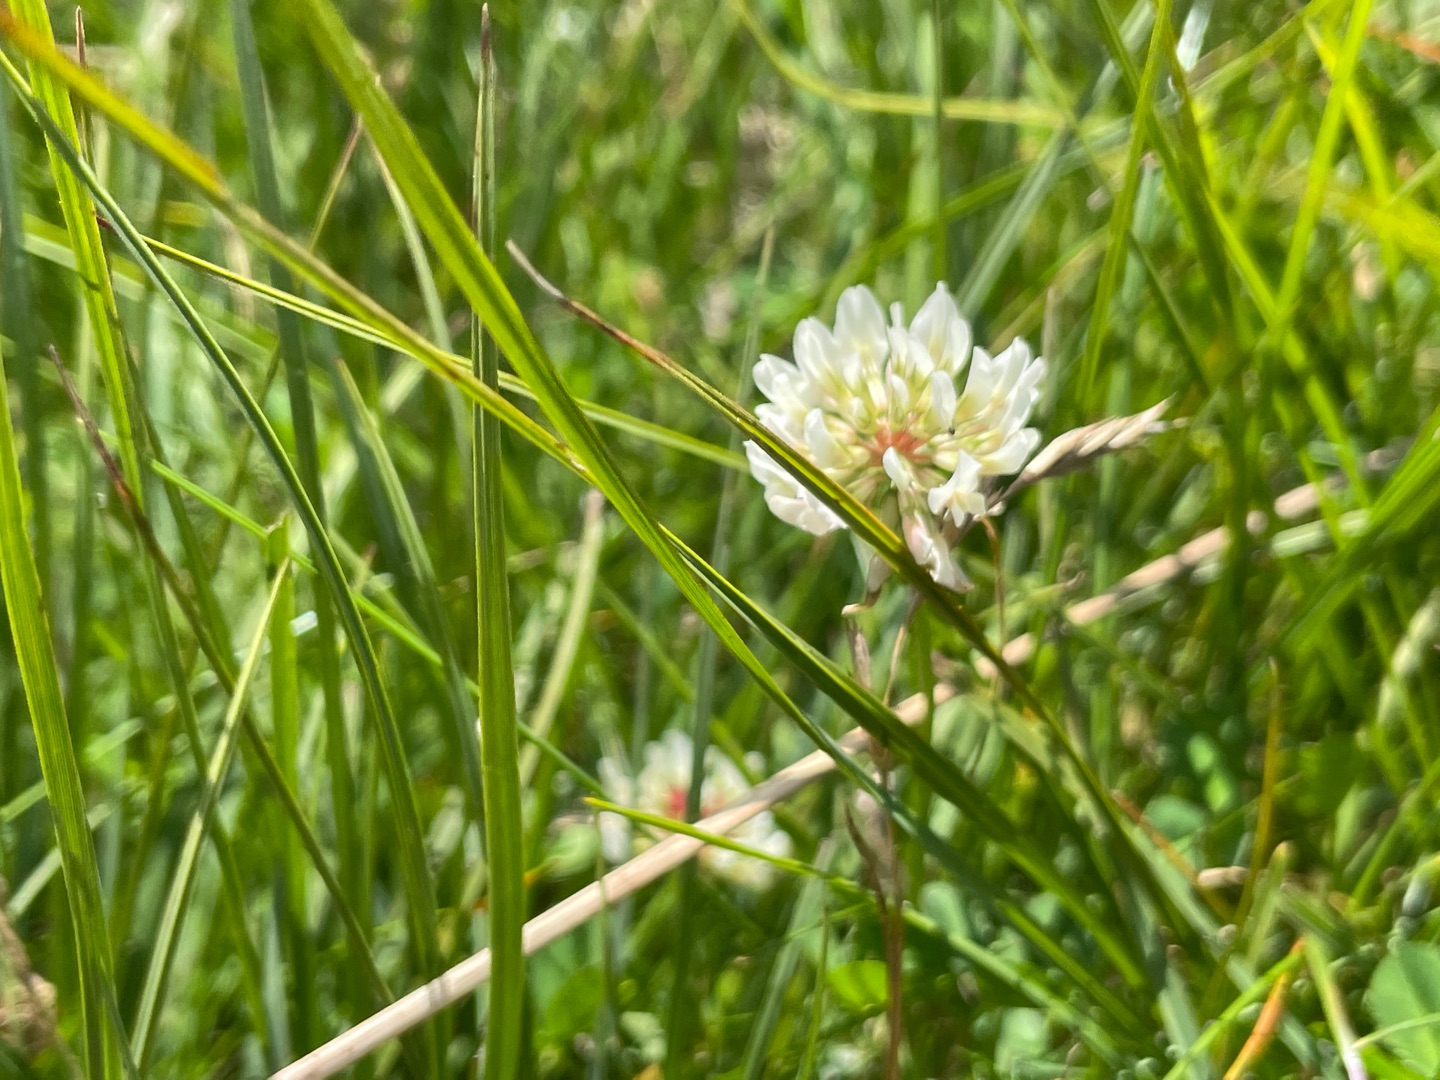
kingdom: Plantae
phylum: Tracheophyta
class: Magnoliopsida
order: Fabales
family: Fabaceae
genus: Trifolium
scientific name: Trifolium repens
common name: Hvid-kløver
